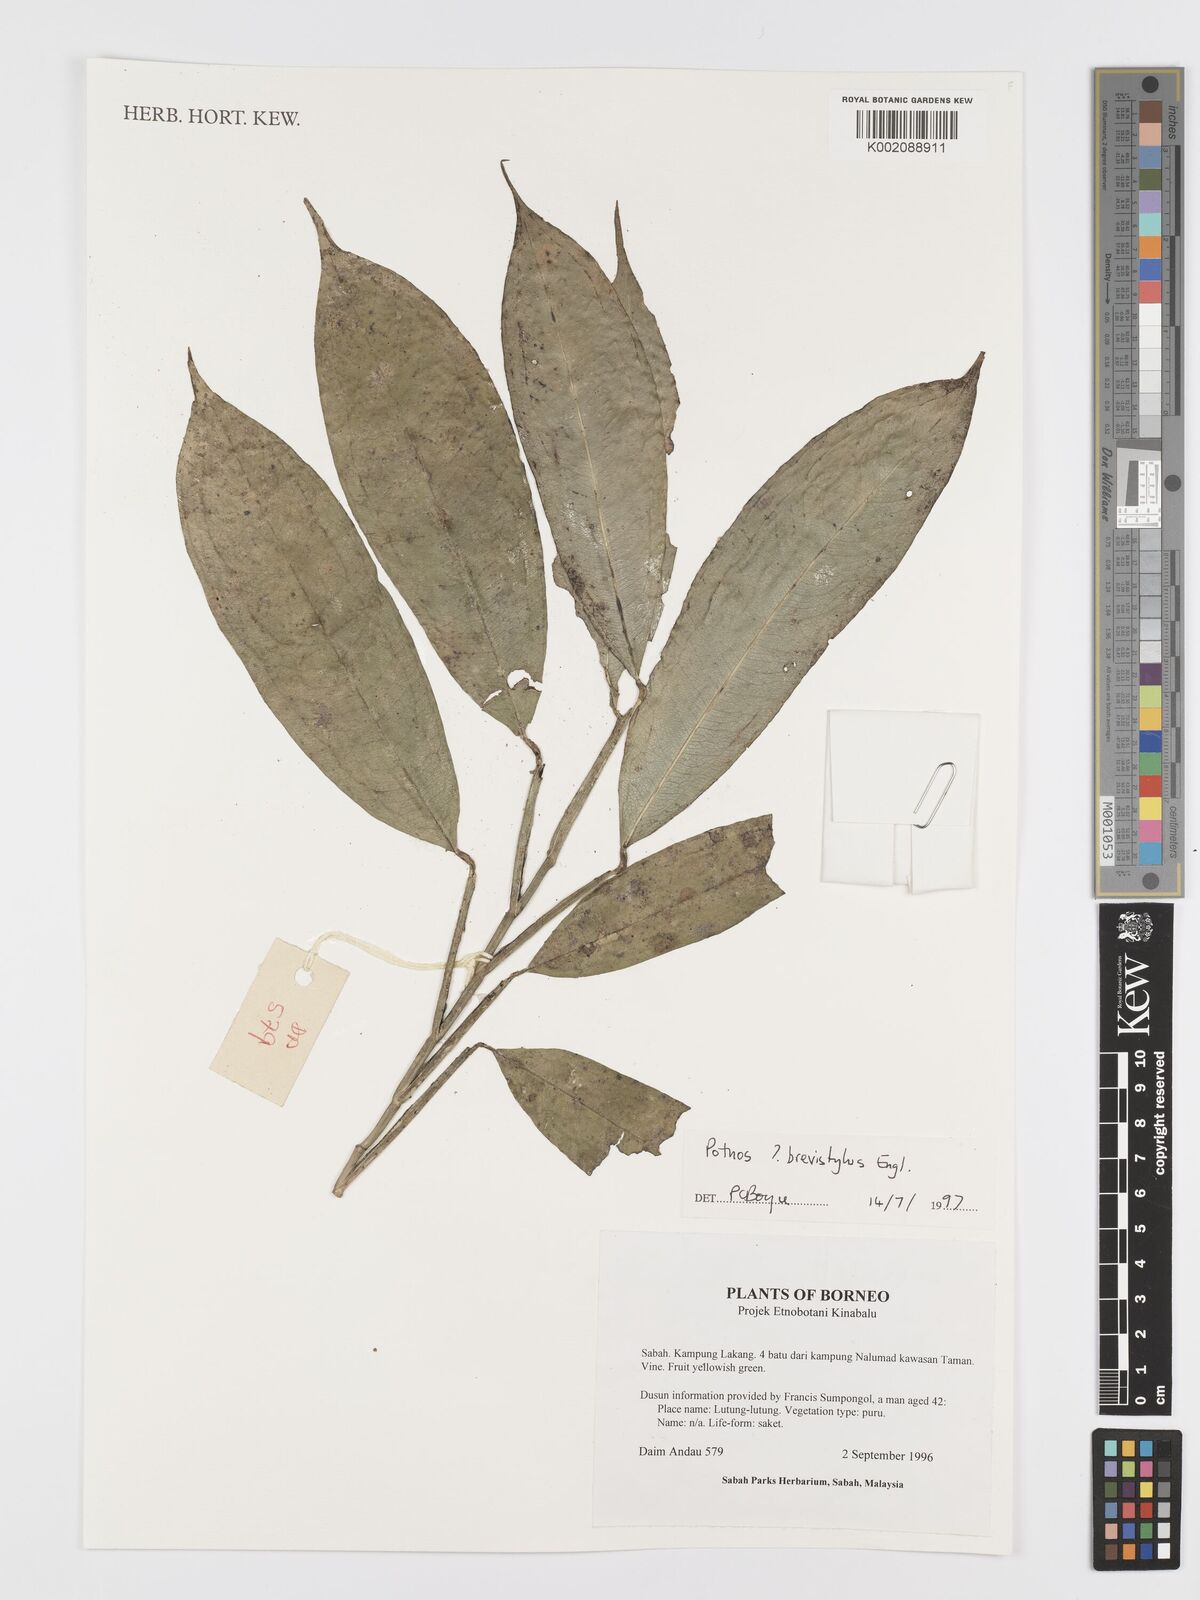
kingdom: Plantae
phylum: Tracheophyta
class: Liliopsida
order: Alismatales
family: Araceae
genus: Pothos
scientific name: Pothos brevistylus
